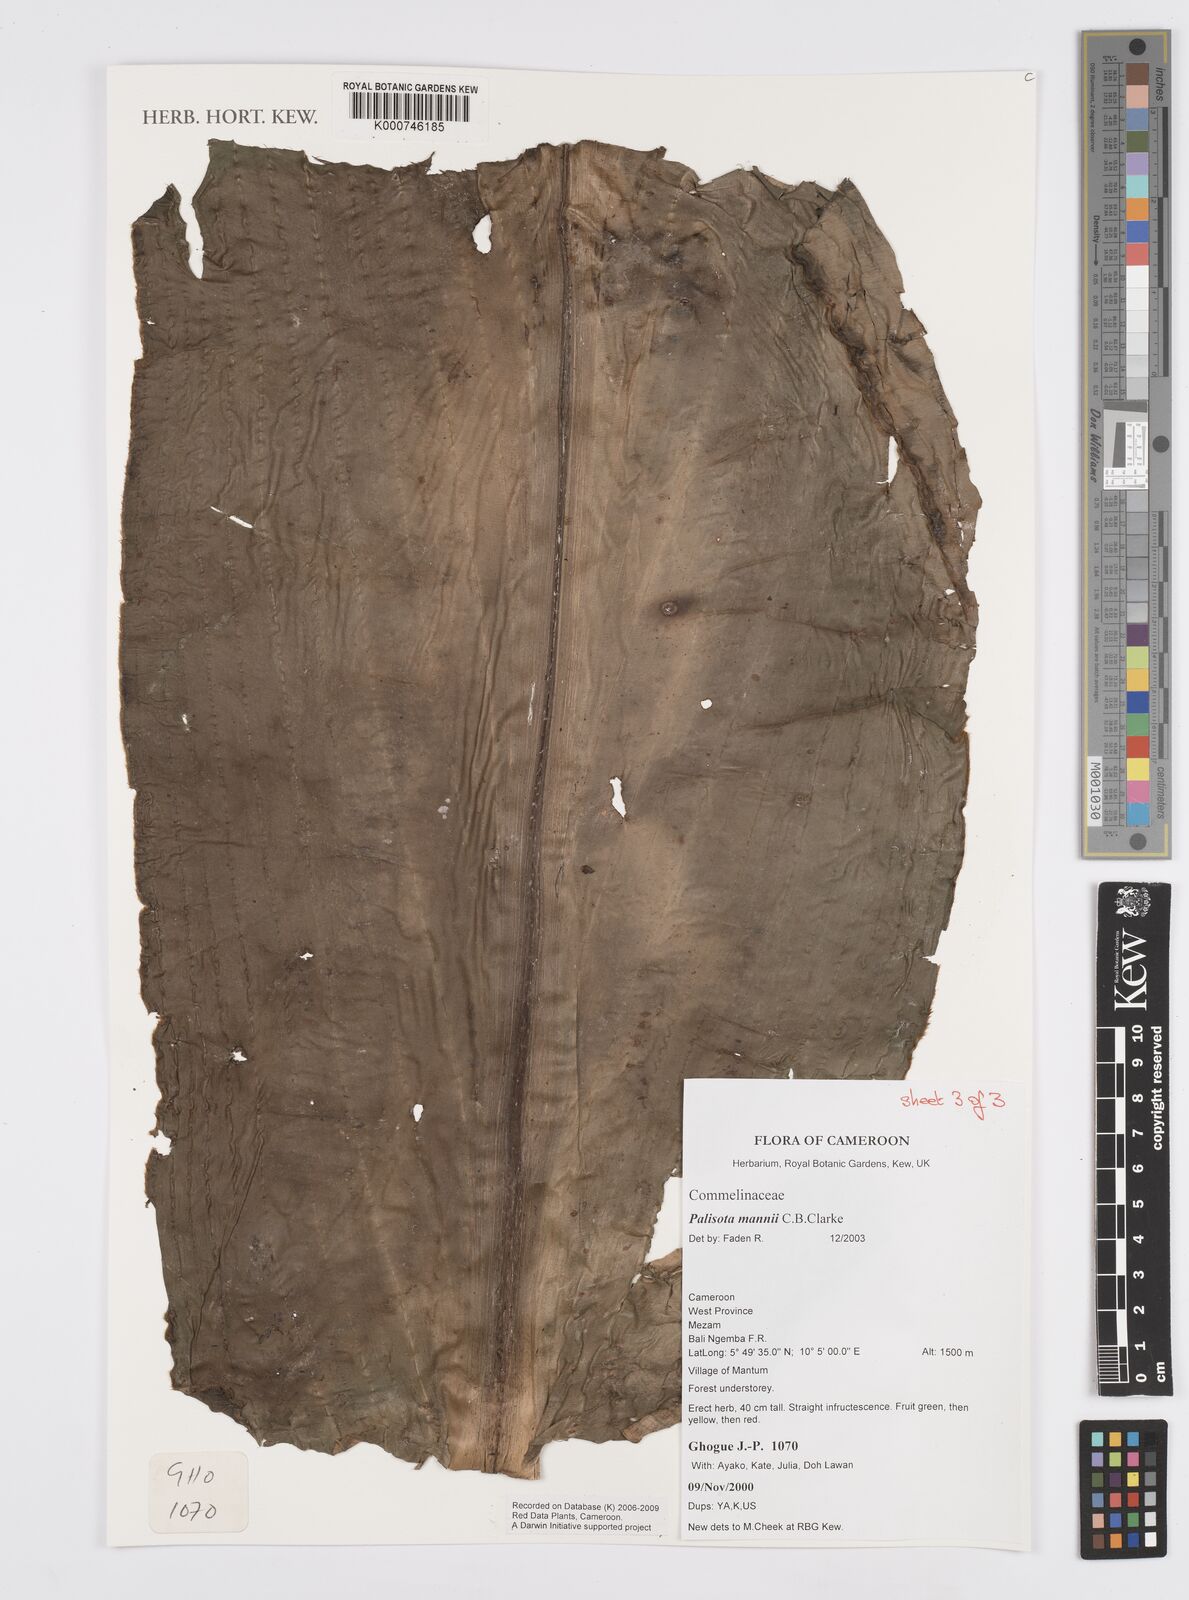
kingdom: Plantae
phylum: Tracheophyta
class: Liliopsida
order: Commelinales
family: Commelinaceae
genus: Palisota
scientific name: Palisota mannii
